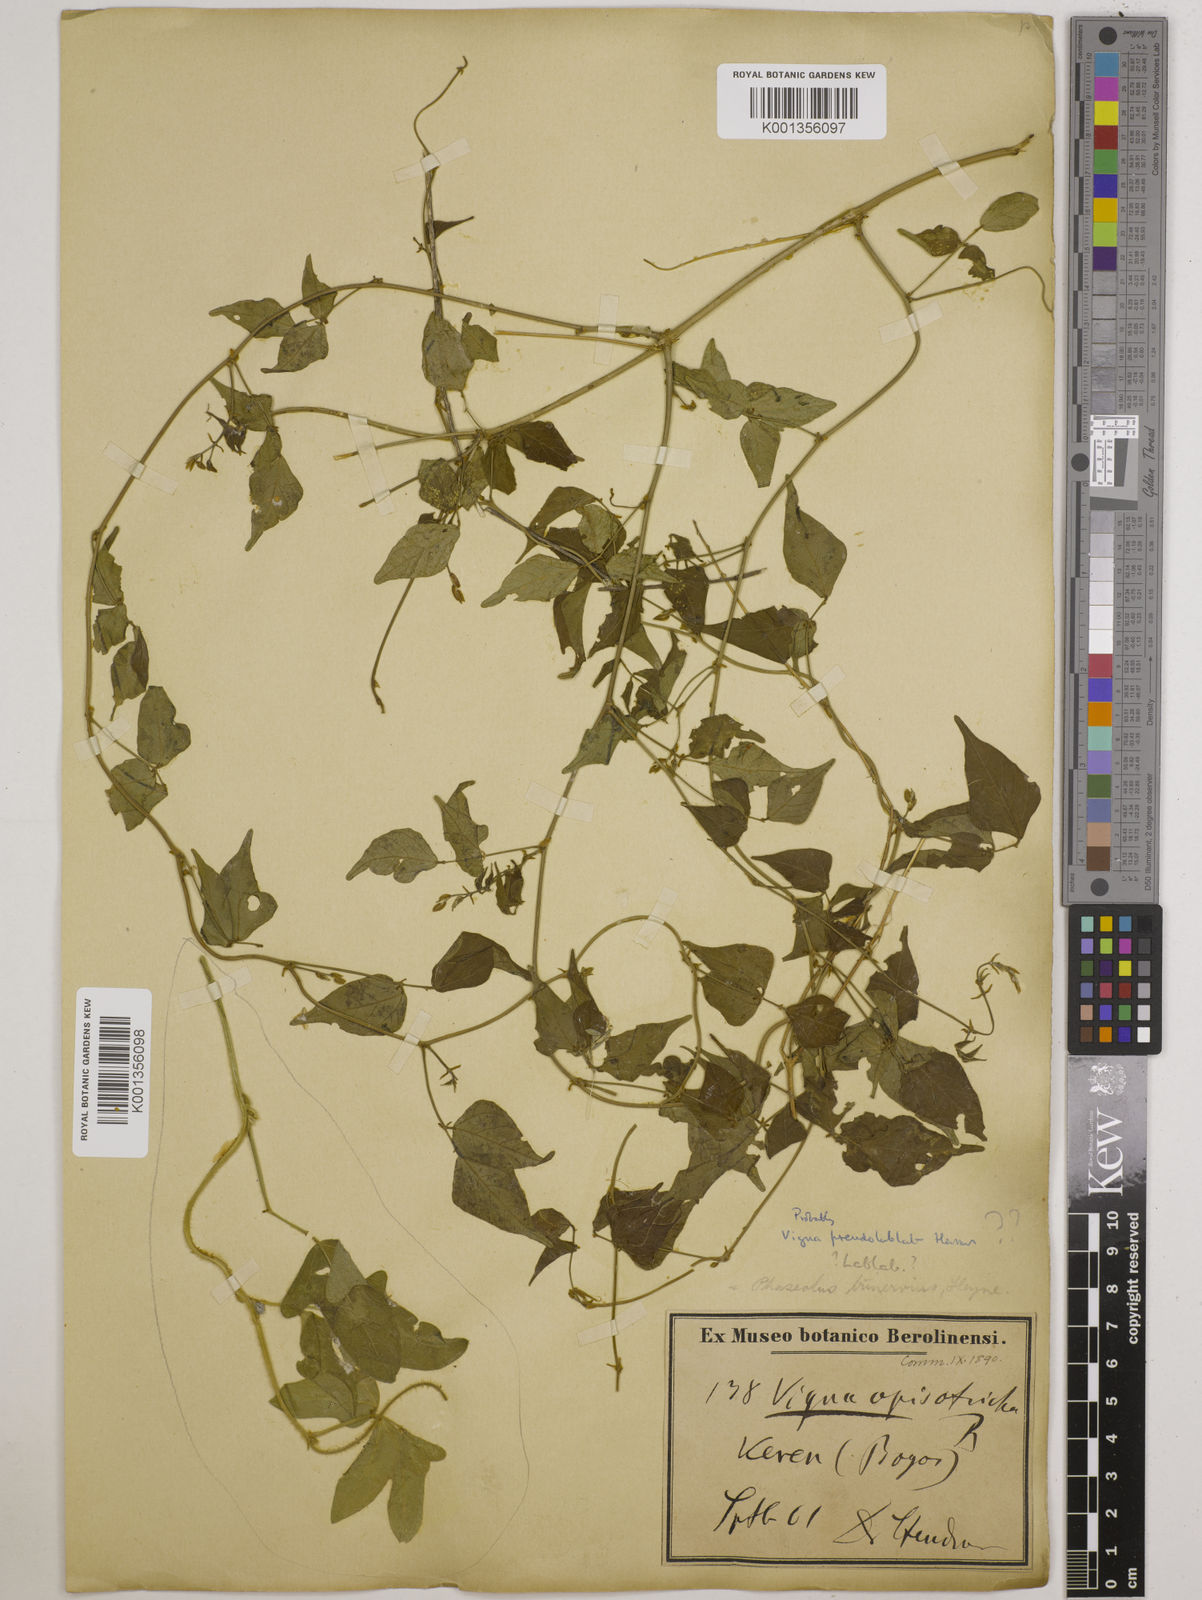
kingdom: Plantae
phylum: Tracheophyta
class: Magnoliopsida
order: Fabales
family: Fabaceae
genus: Lablab
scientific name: Lablab purpureus
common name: Lablab-bean
